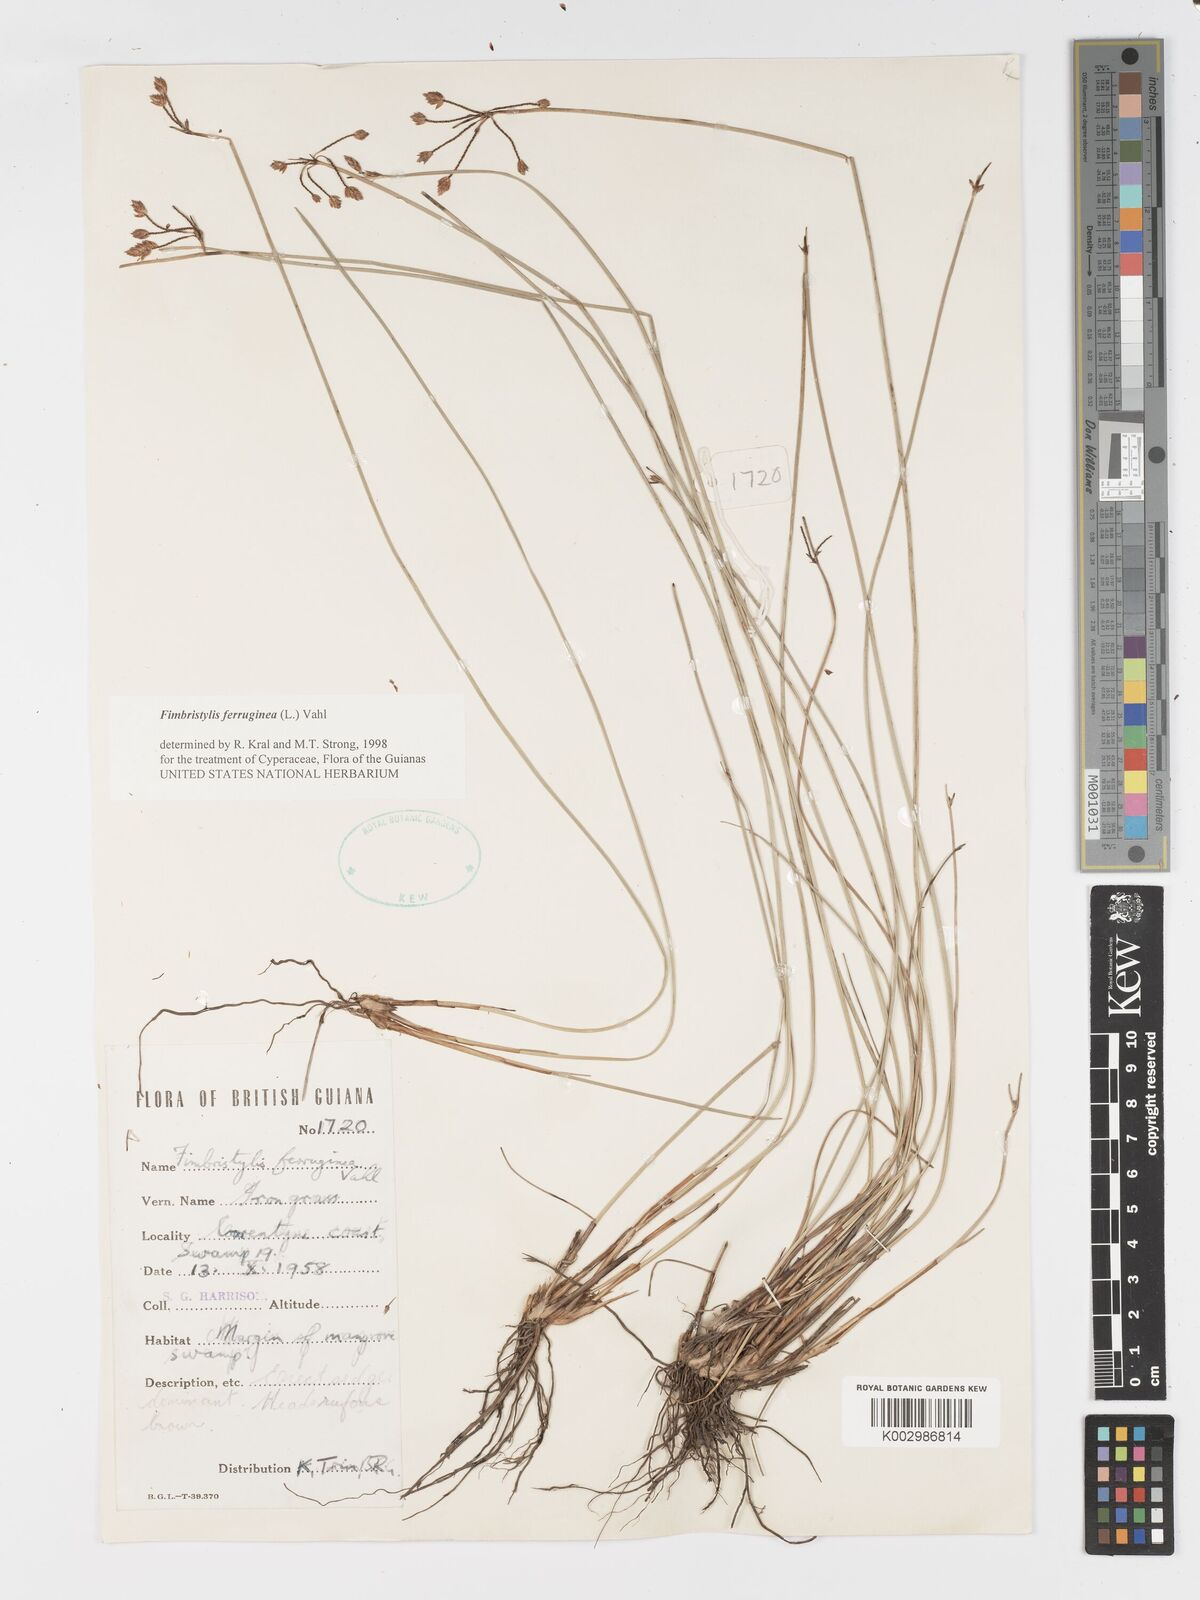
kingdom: Plantae
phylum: Tracheophyta
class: Liliopsida
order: Poales
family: Cyperaceae
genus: Fimbristylis
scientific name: Fimbristylis ferruginea
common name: West indian fimbry
